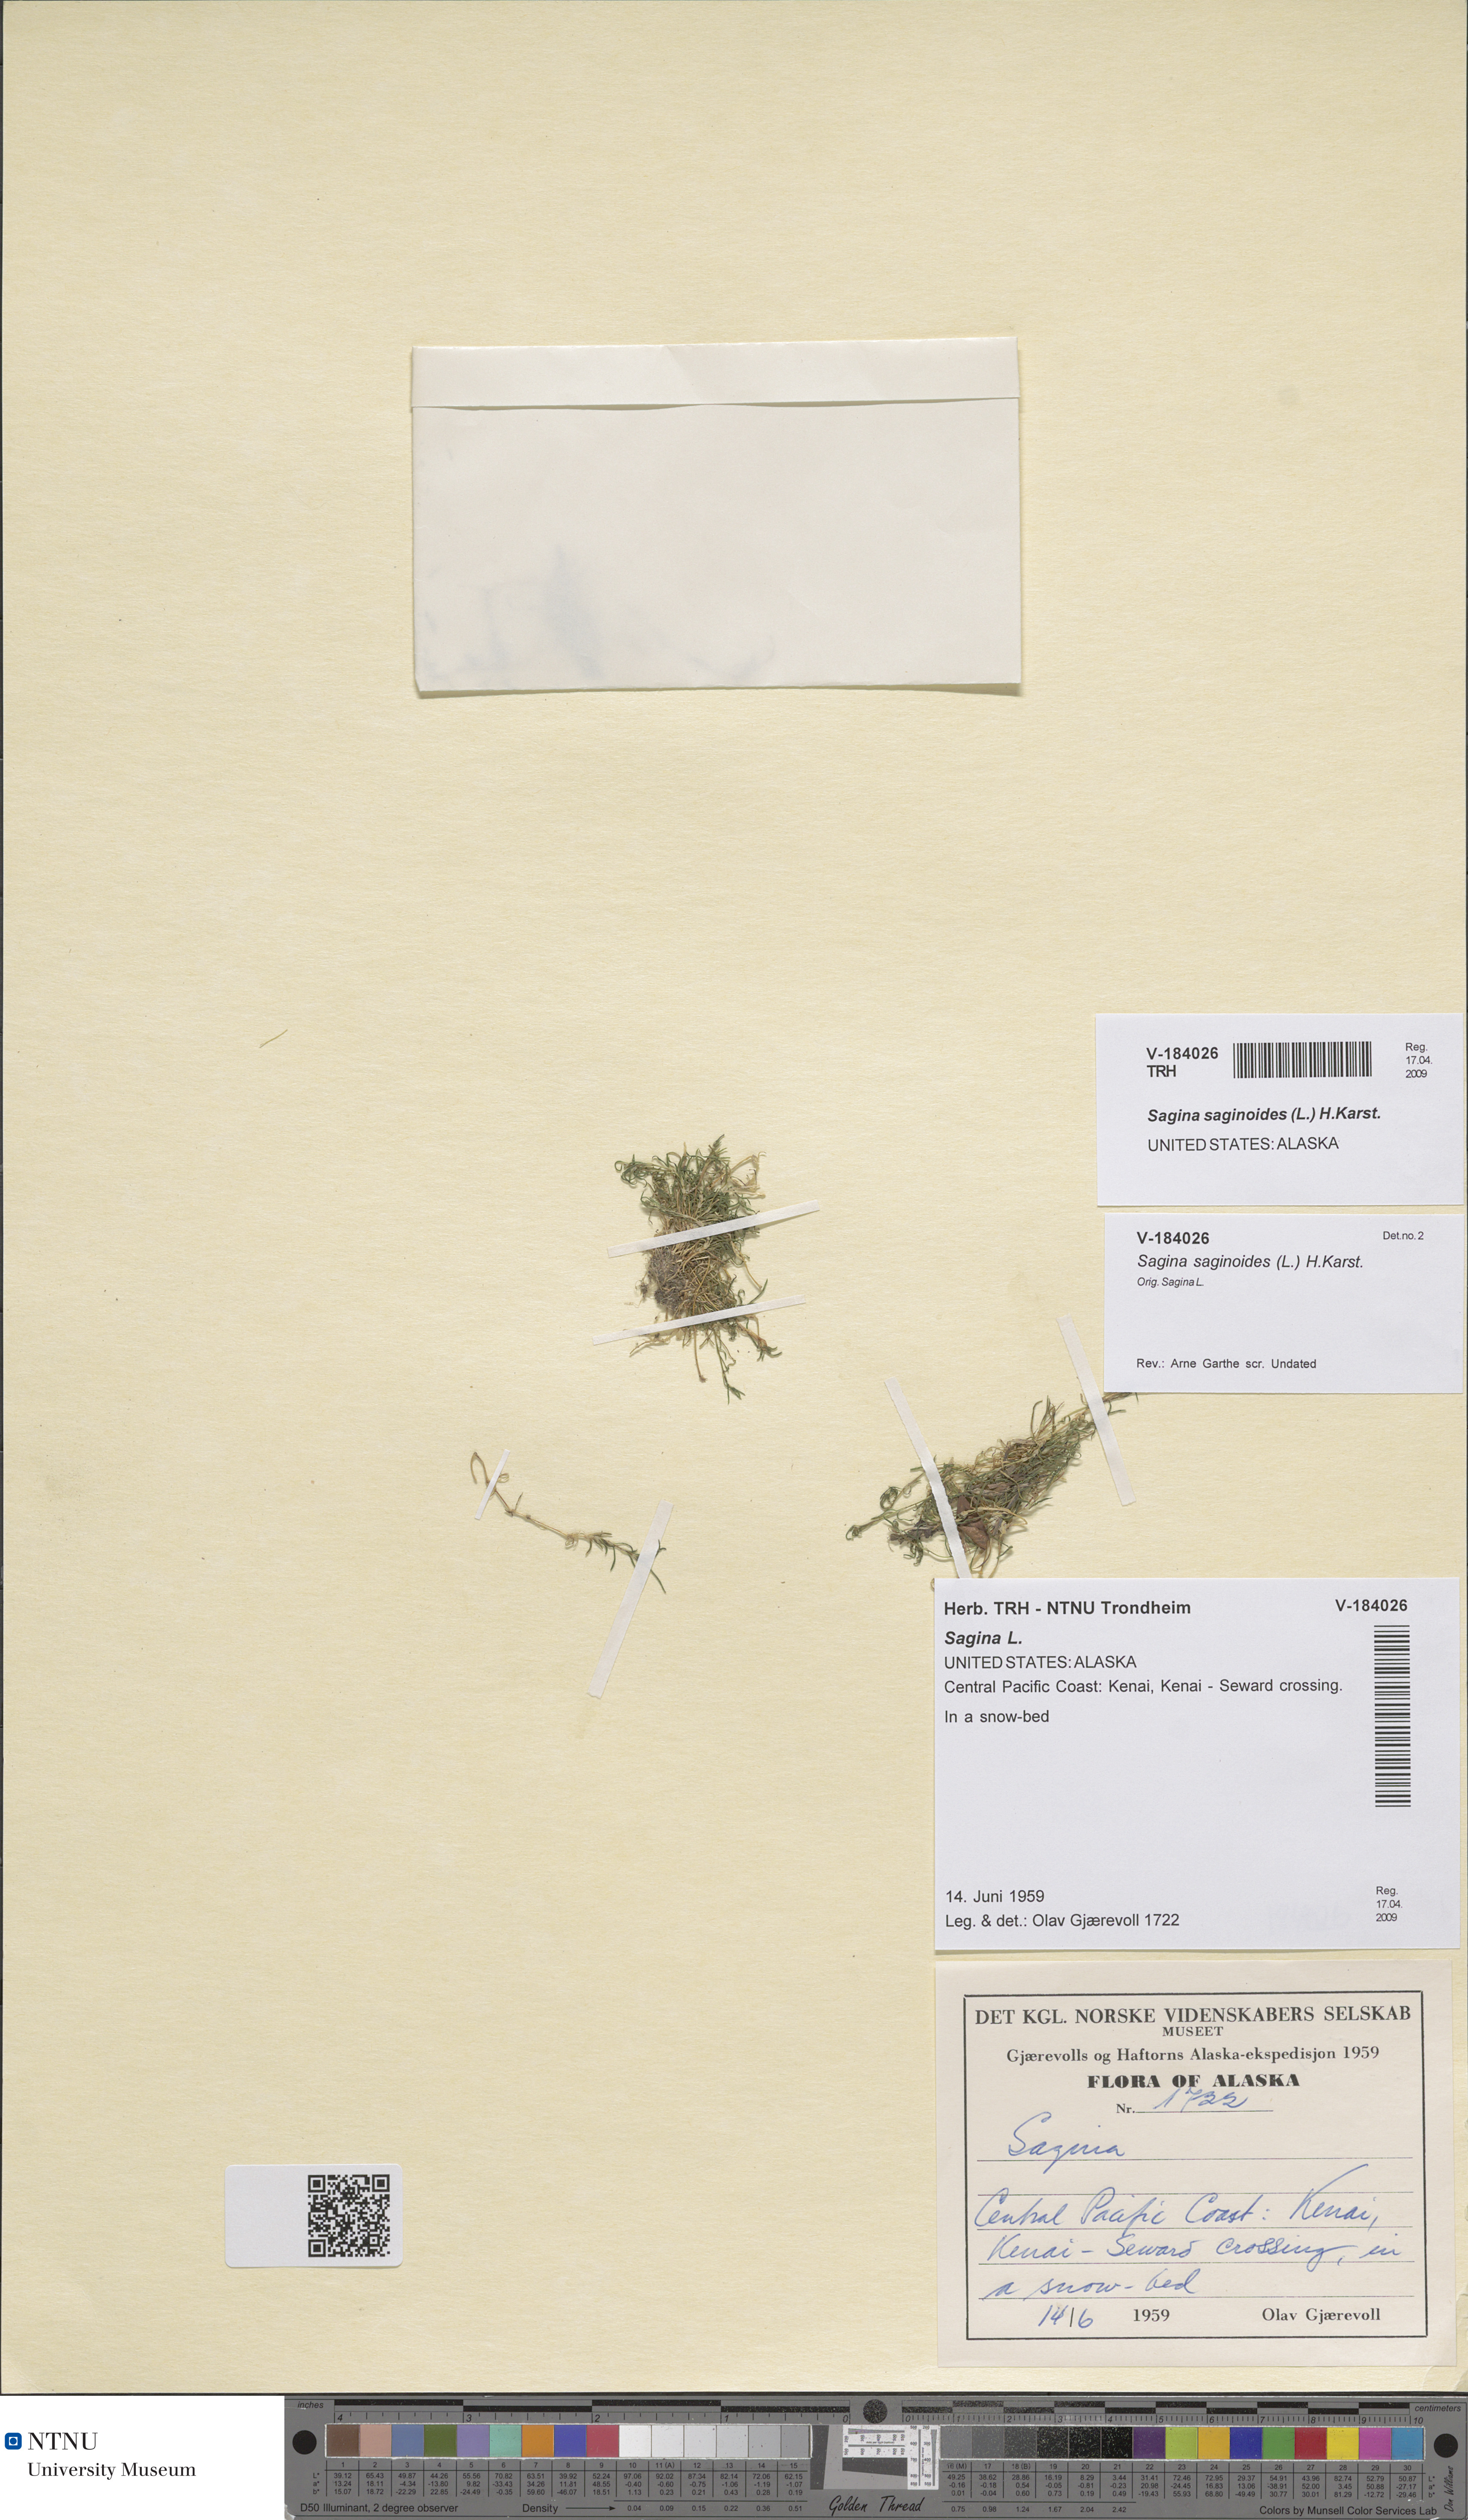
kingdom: Plantae
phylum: Tracheophyta
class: Magnoliopsida
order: Caryophyllales
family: Caryophyllaceae
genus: Sagina
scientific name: Sagina saginoides
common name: Alpine pearlwort
